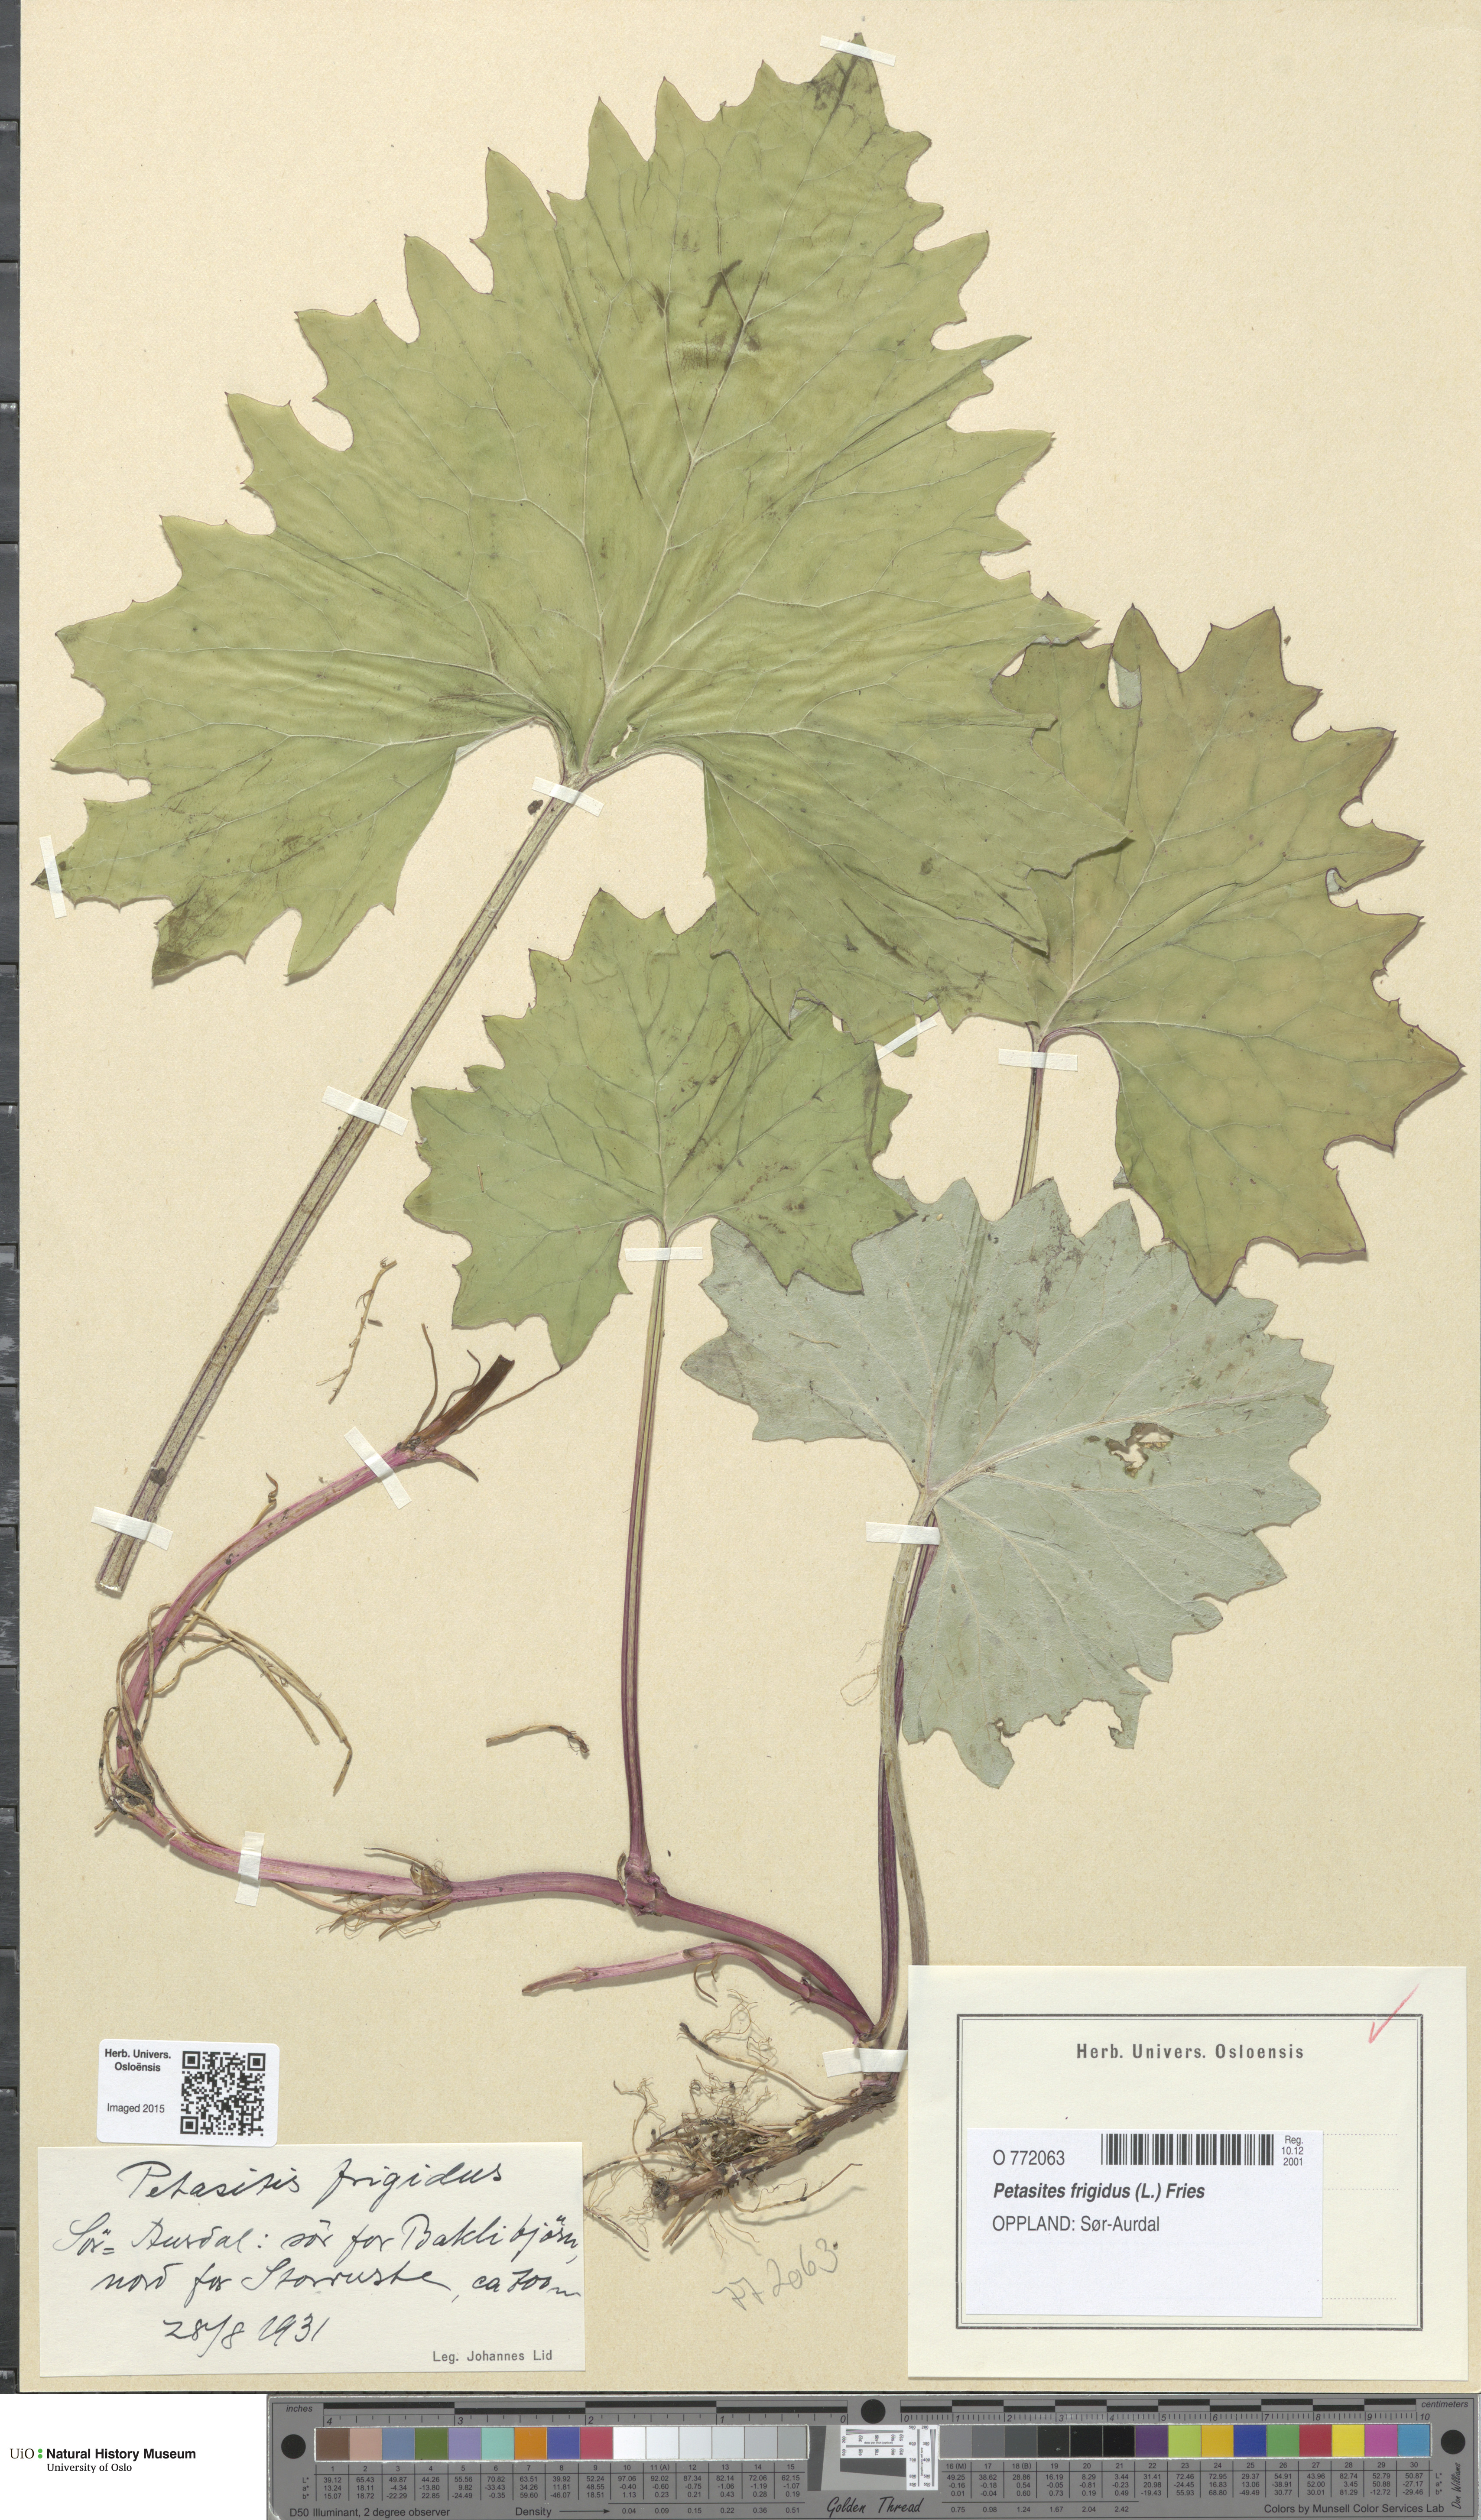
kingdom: Plantae
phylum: Tracheophyta
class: Magnoliopsida
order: Asterales
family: Asteraceae
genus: Petasites
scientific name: Petasites frigidus
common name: Arctic butterbur
